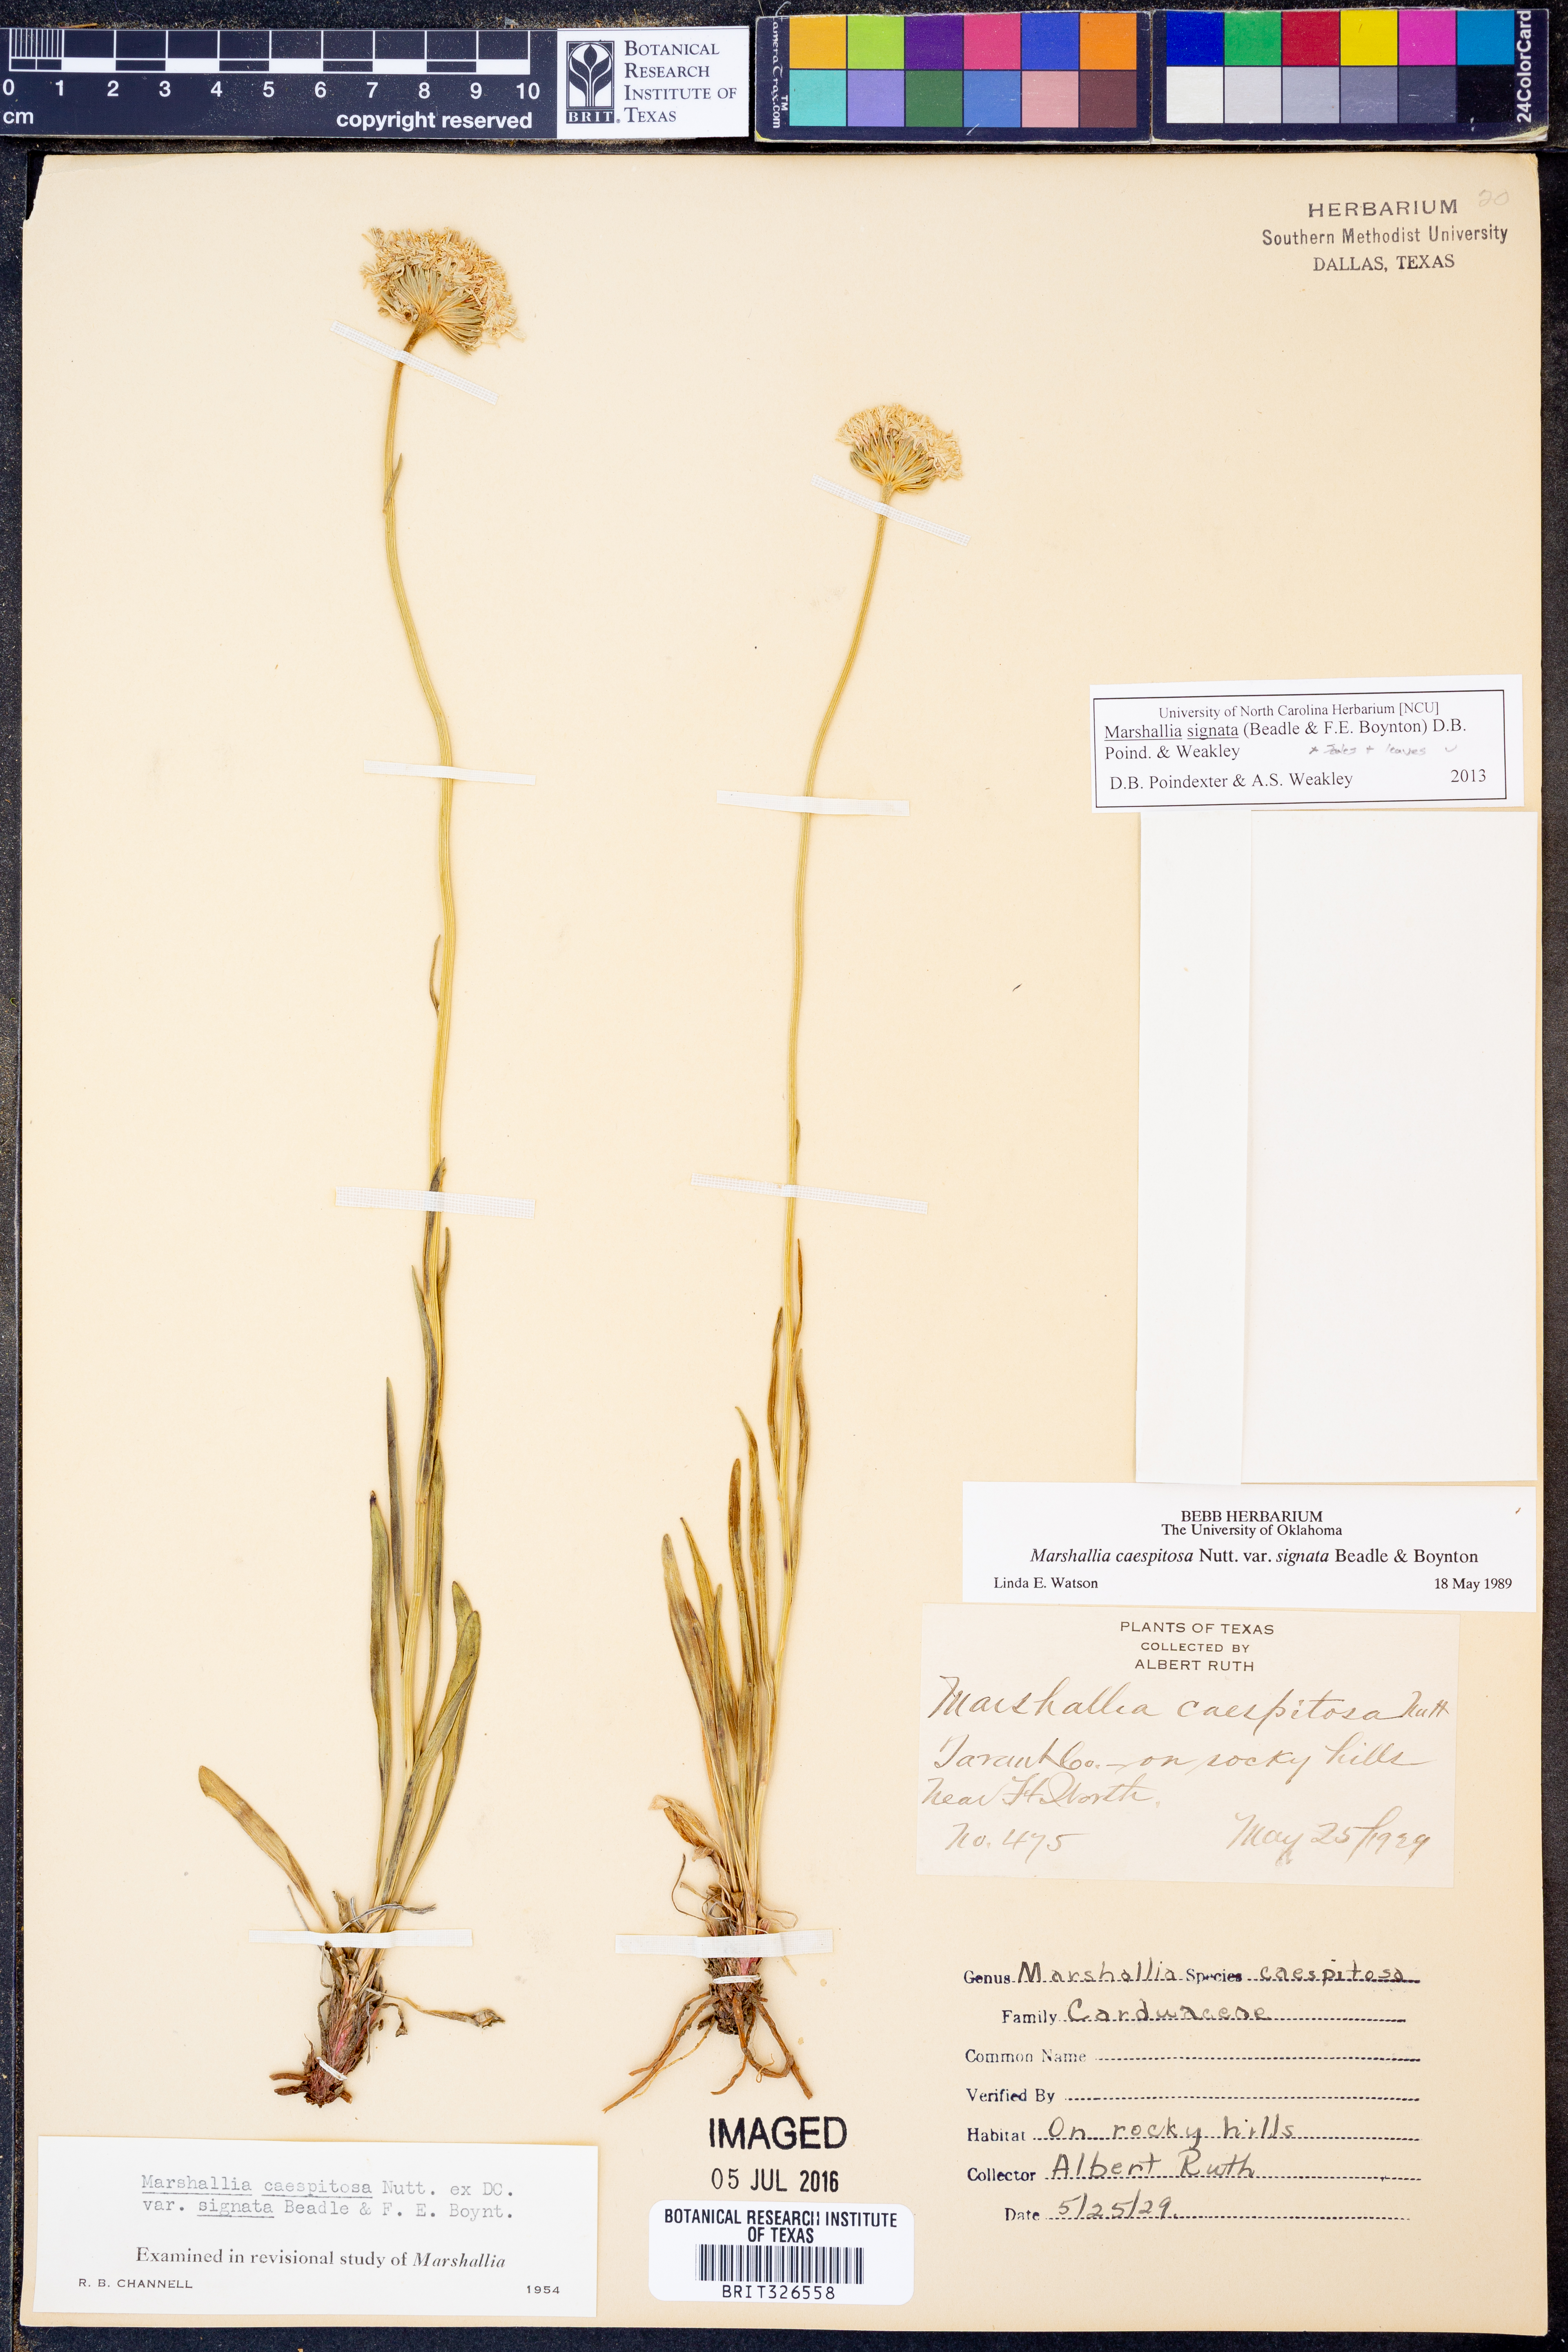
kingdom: Plantae
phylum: Tracheophyta
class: Magnoliopsida
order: Asterales
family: Asteraceae
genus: Marshallia
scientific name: Marshallia
